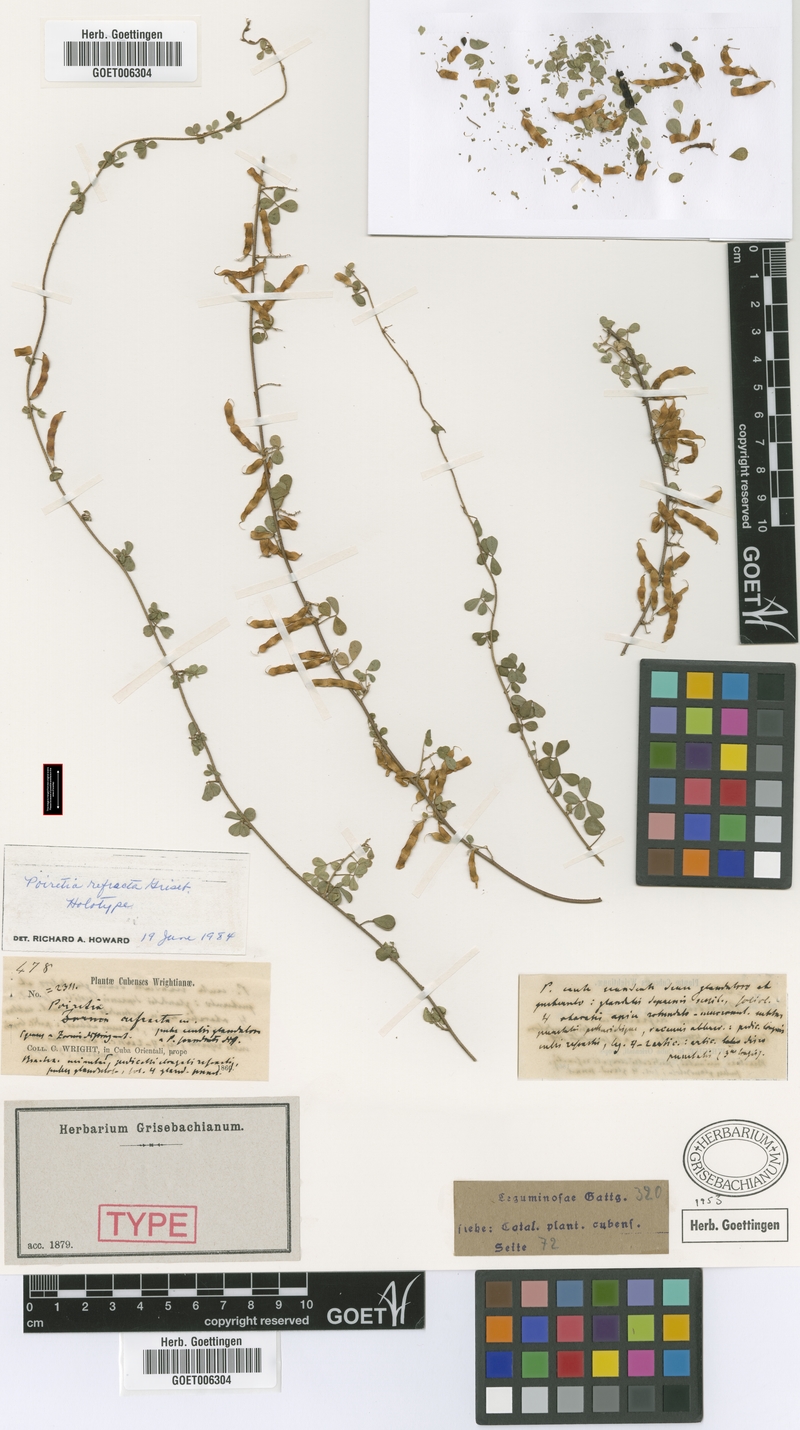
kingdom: Plantae
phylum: Tracheophyta
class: Magnoliopsida
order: Fabales
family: Fabaceae
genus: Poiretia
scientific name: Poiretia punctata
